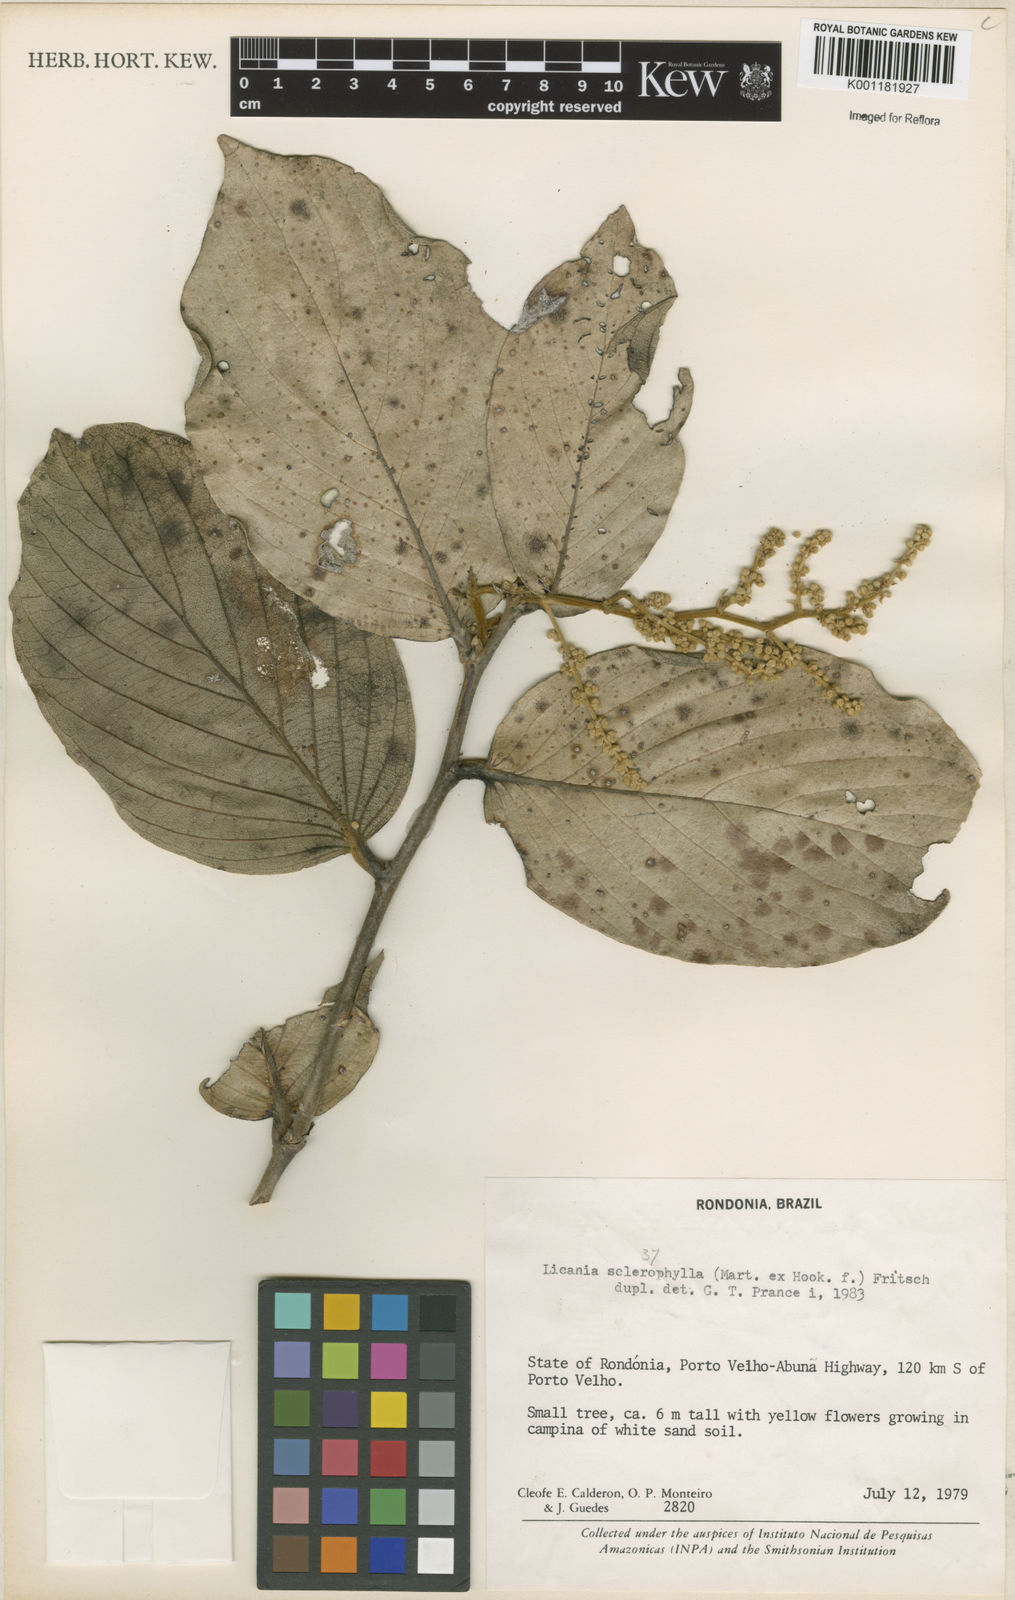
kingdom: Plantae
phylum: Tracheophyta
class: Magnoliopsida
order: Malpighiales
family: Chrysobalanaceae
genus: Licania
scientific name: Licania sclerophylla
